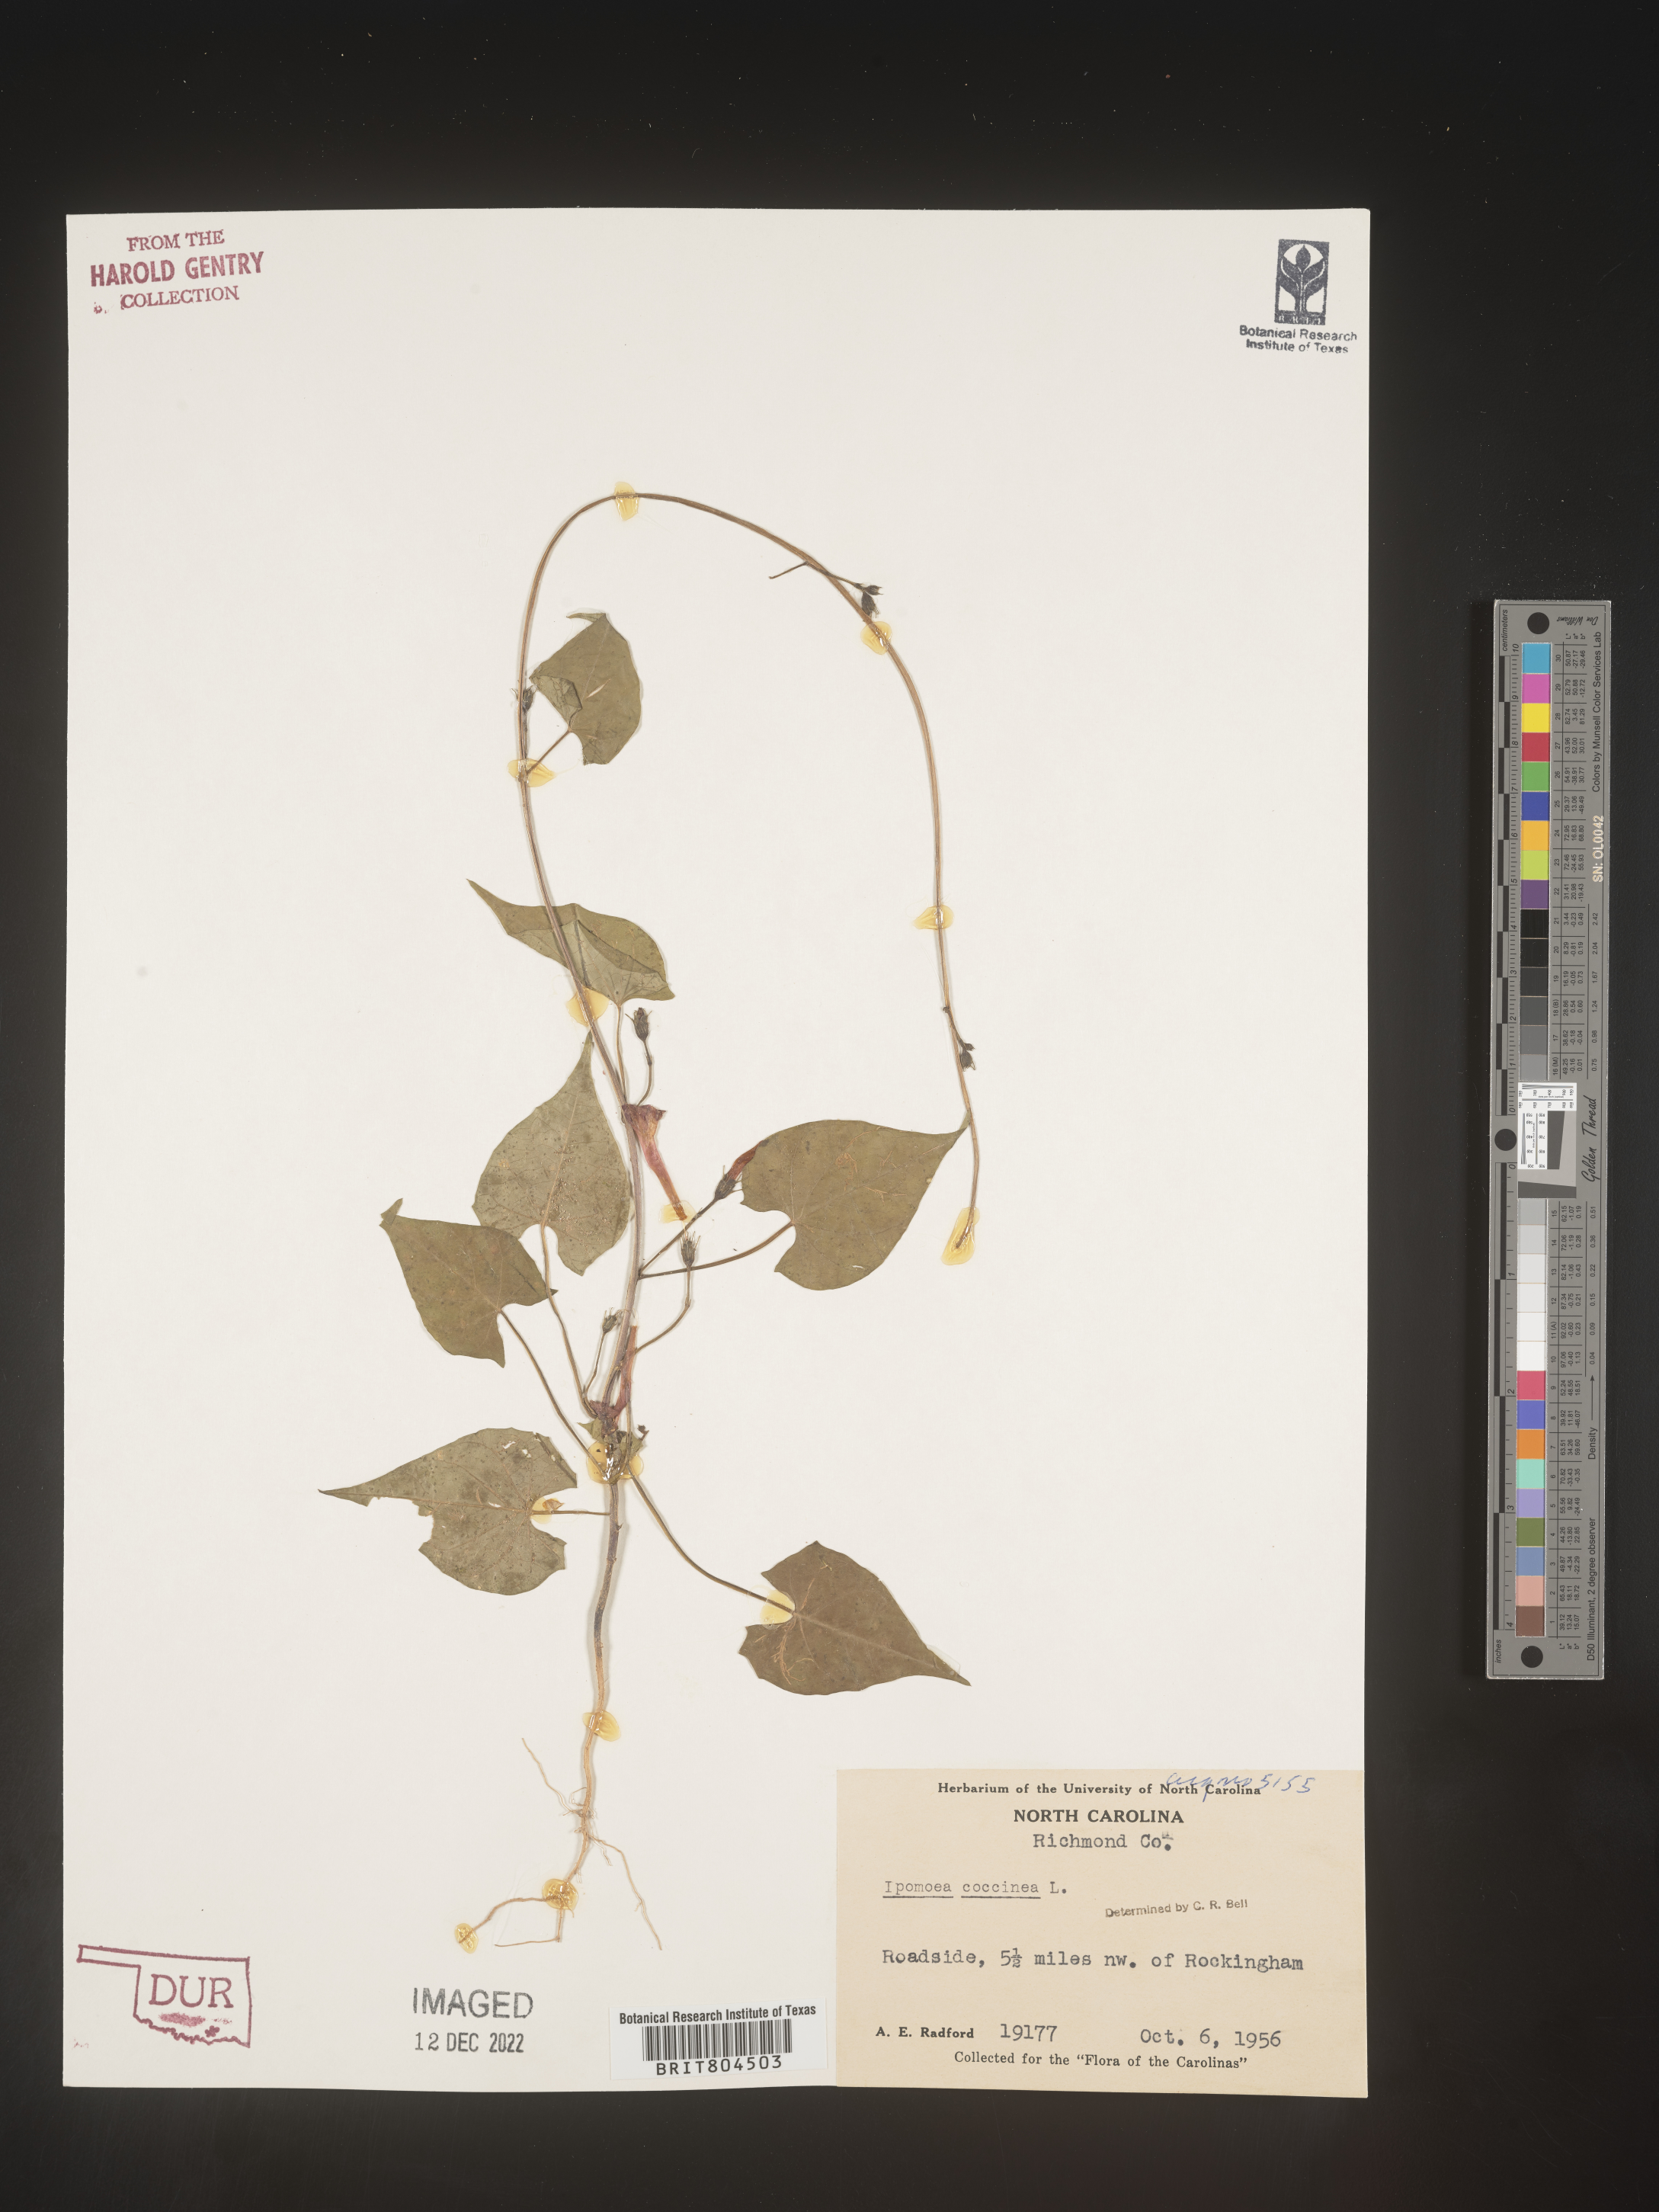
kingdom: Plantae
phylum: Tracheophyta
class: Magnoliopsida
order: Solanales
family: Convolvulaceae
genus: Ipomoea
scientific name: Ipomoea coccinea
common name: Red morning-glory
